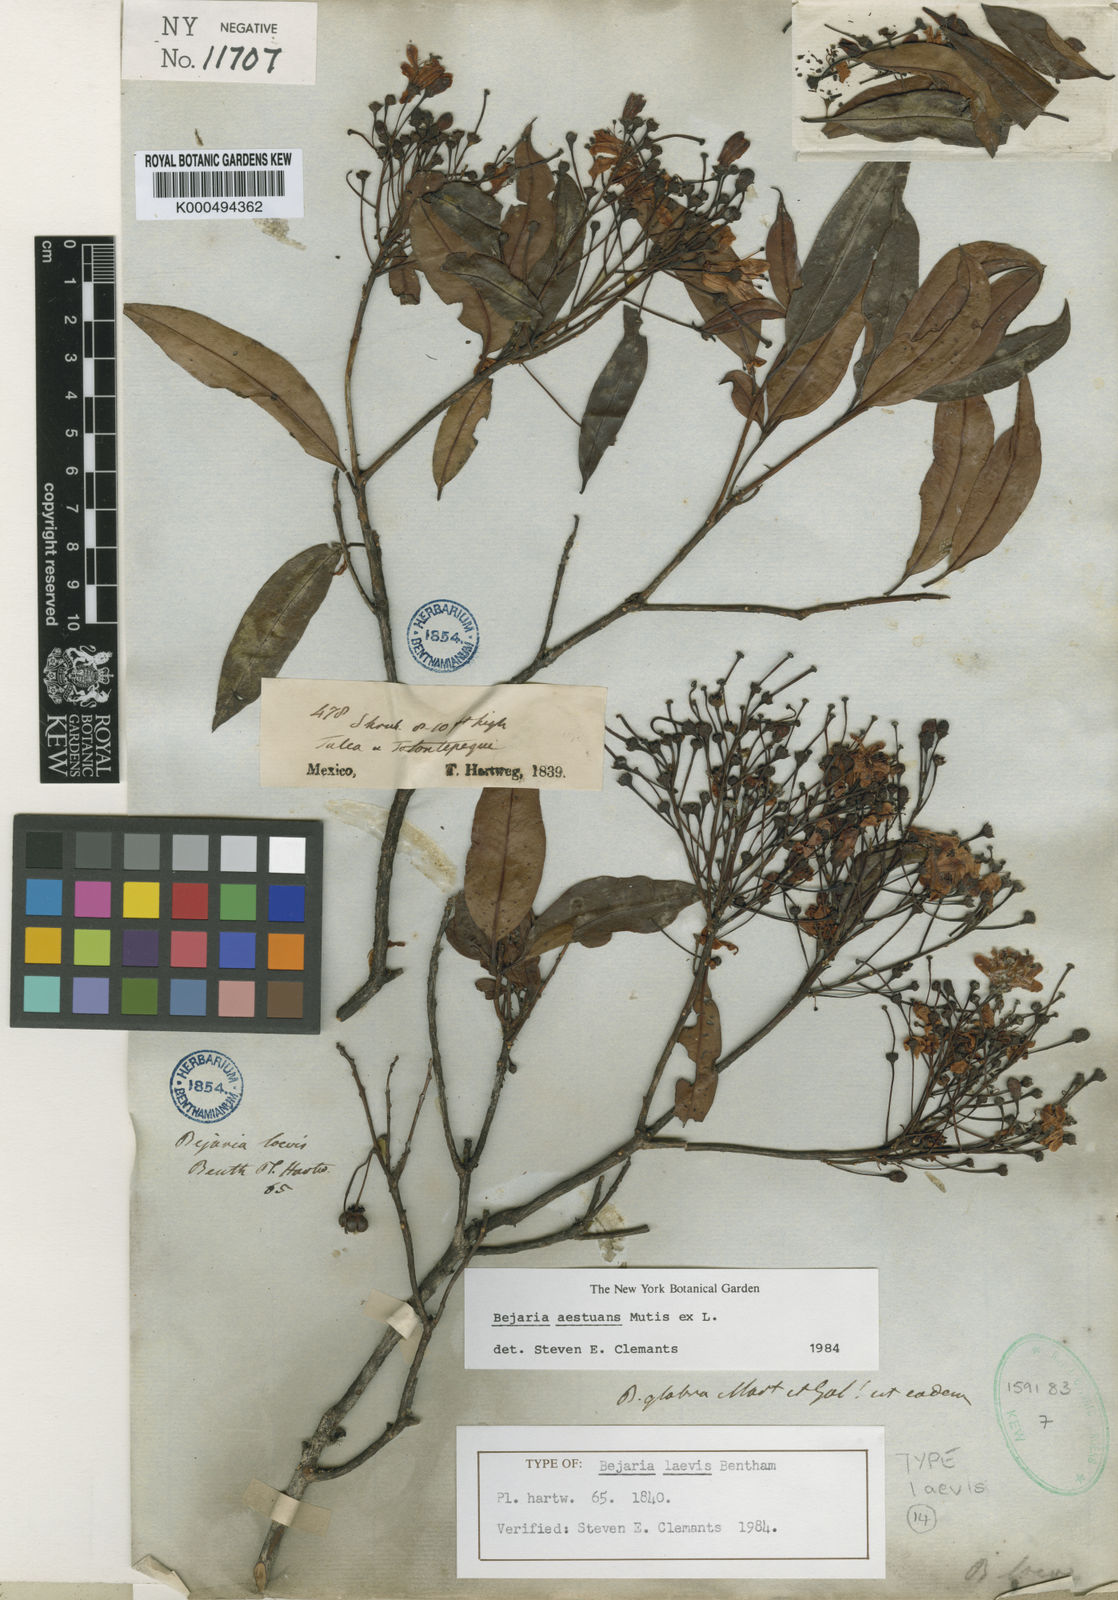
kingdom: Plantae
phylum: Tracheophyta
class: Magnoliopsida
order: Ericales
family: Ericaceae
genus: Bejaria
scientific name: Bejaria
